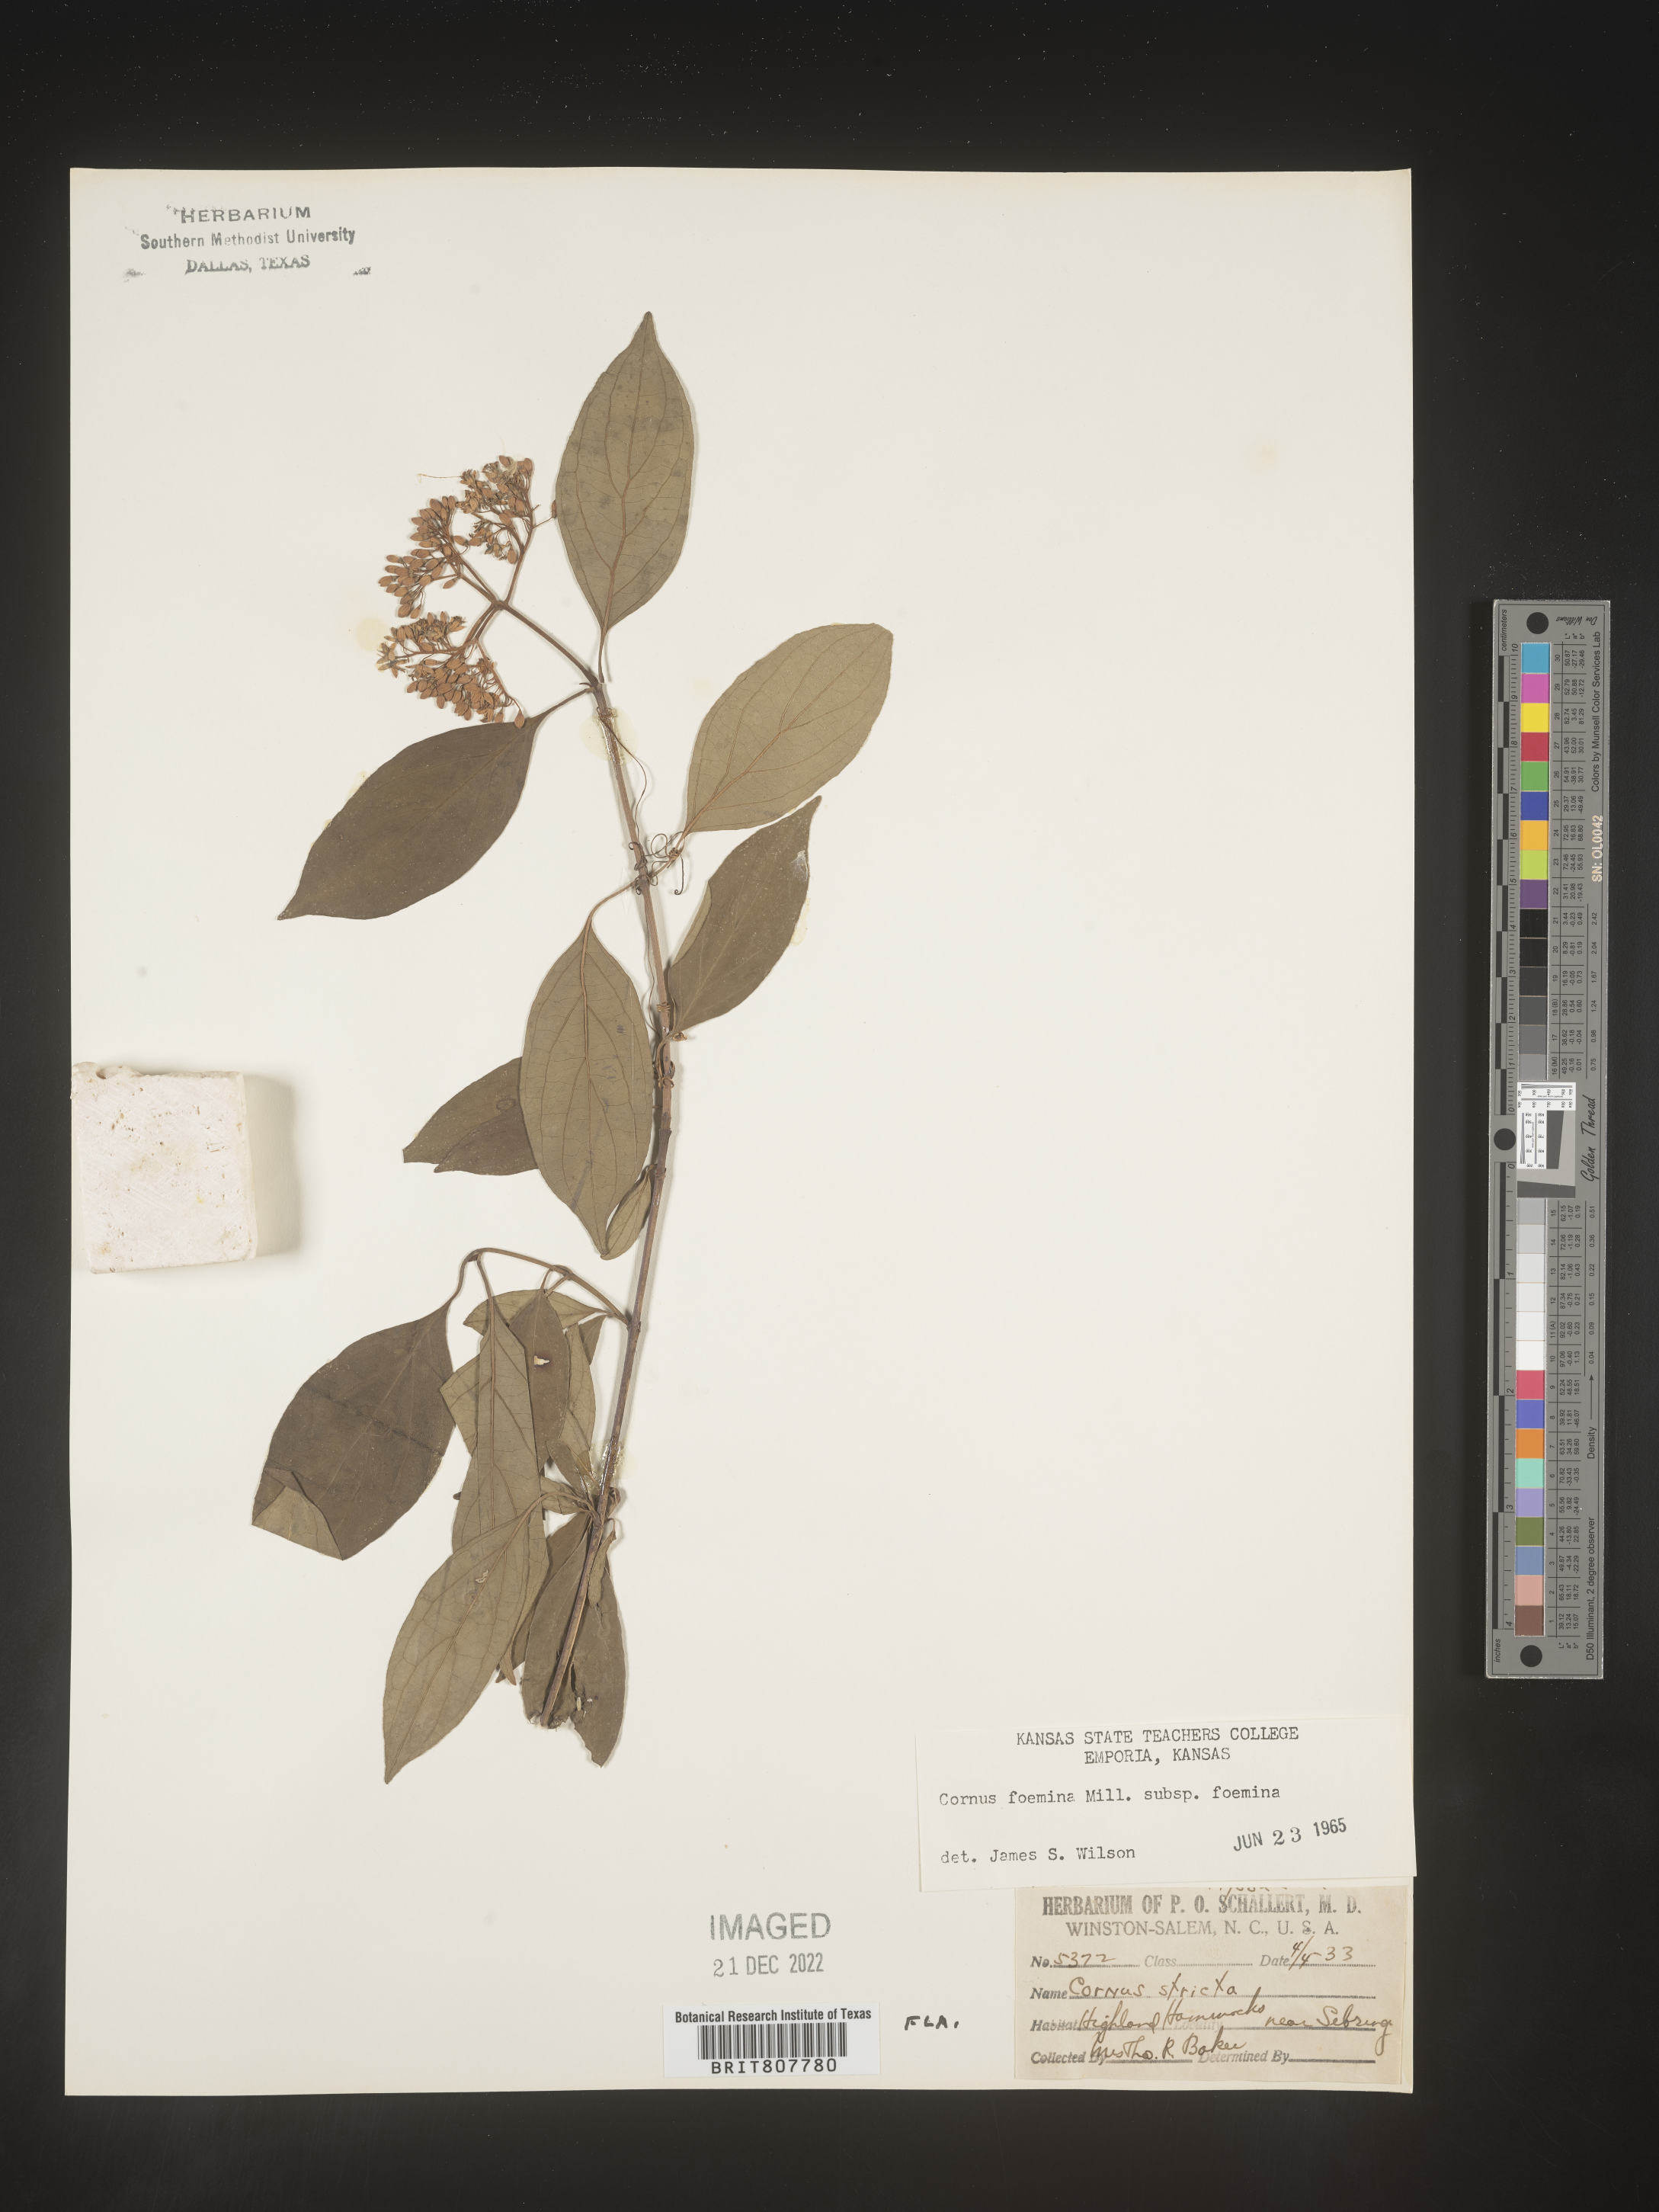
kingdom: Plantae
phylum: Tracheophyta
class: Magnoliopsida
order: Cornales
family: Cornaceae
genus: Cornus
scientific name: Cornus foemina
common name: Swamp dogwood
